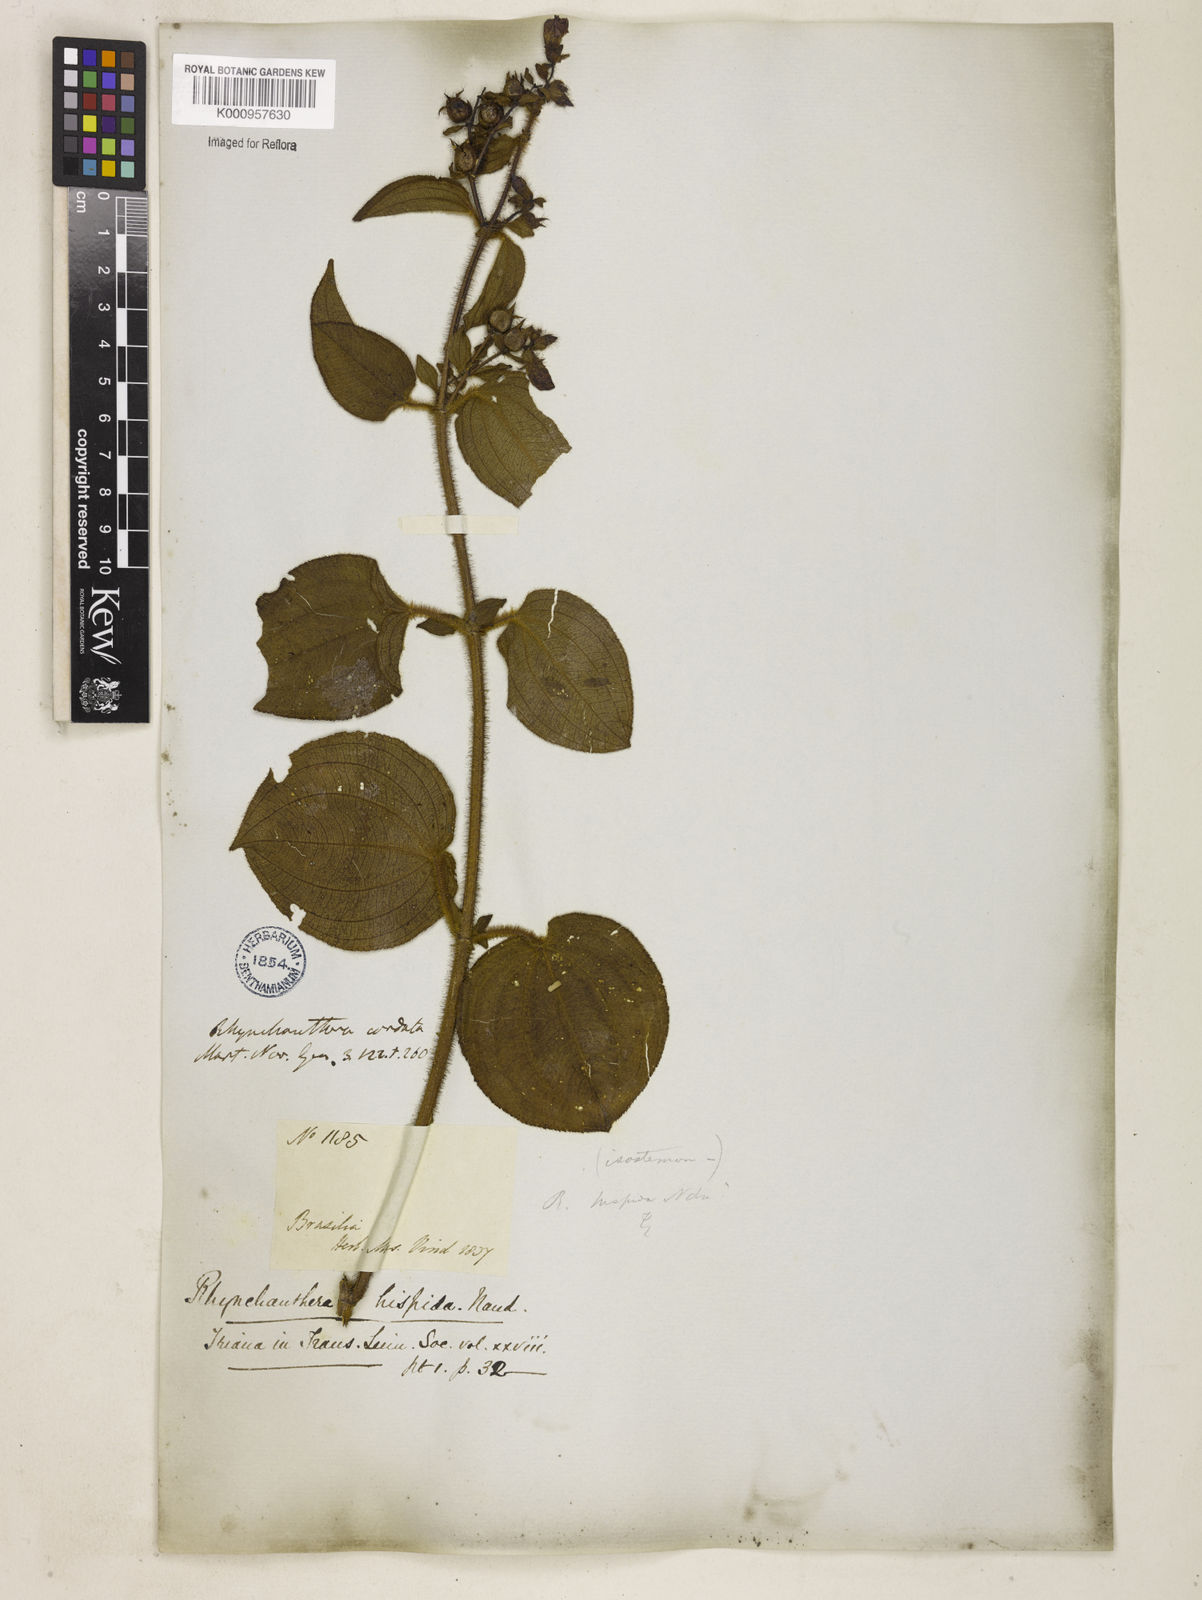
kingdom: Plantae
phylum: Tracheophyta
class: Magnoliopsida
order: Myrtales
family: Melastomataceae
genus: Rhynchanthera
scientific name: Rhynchanthera hispida
